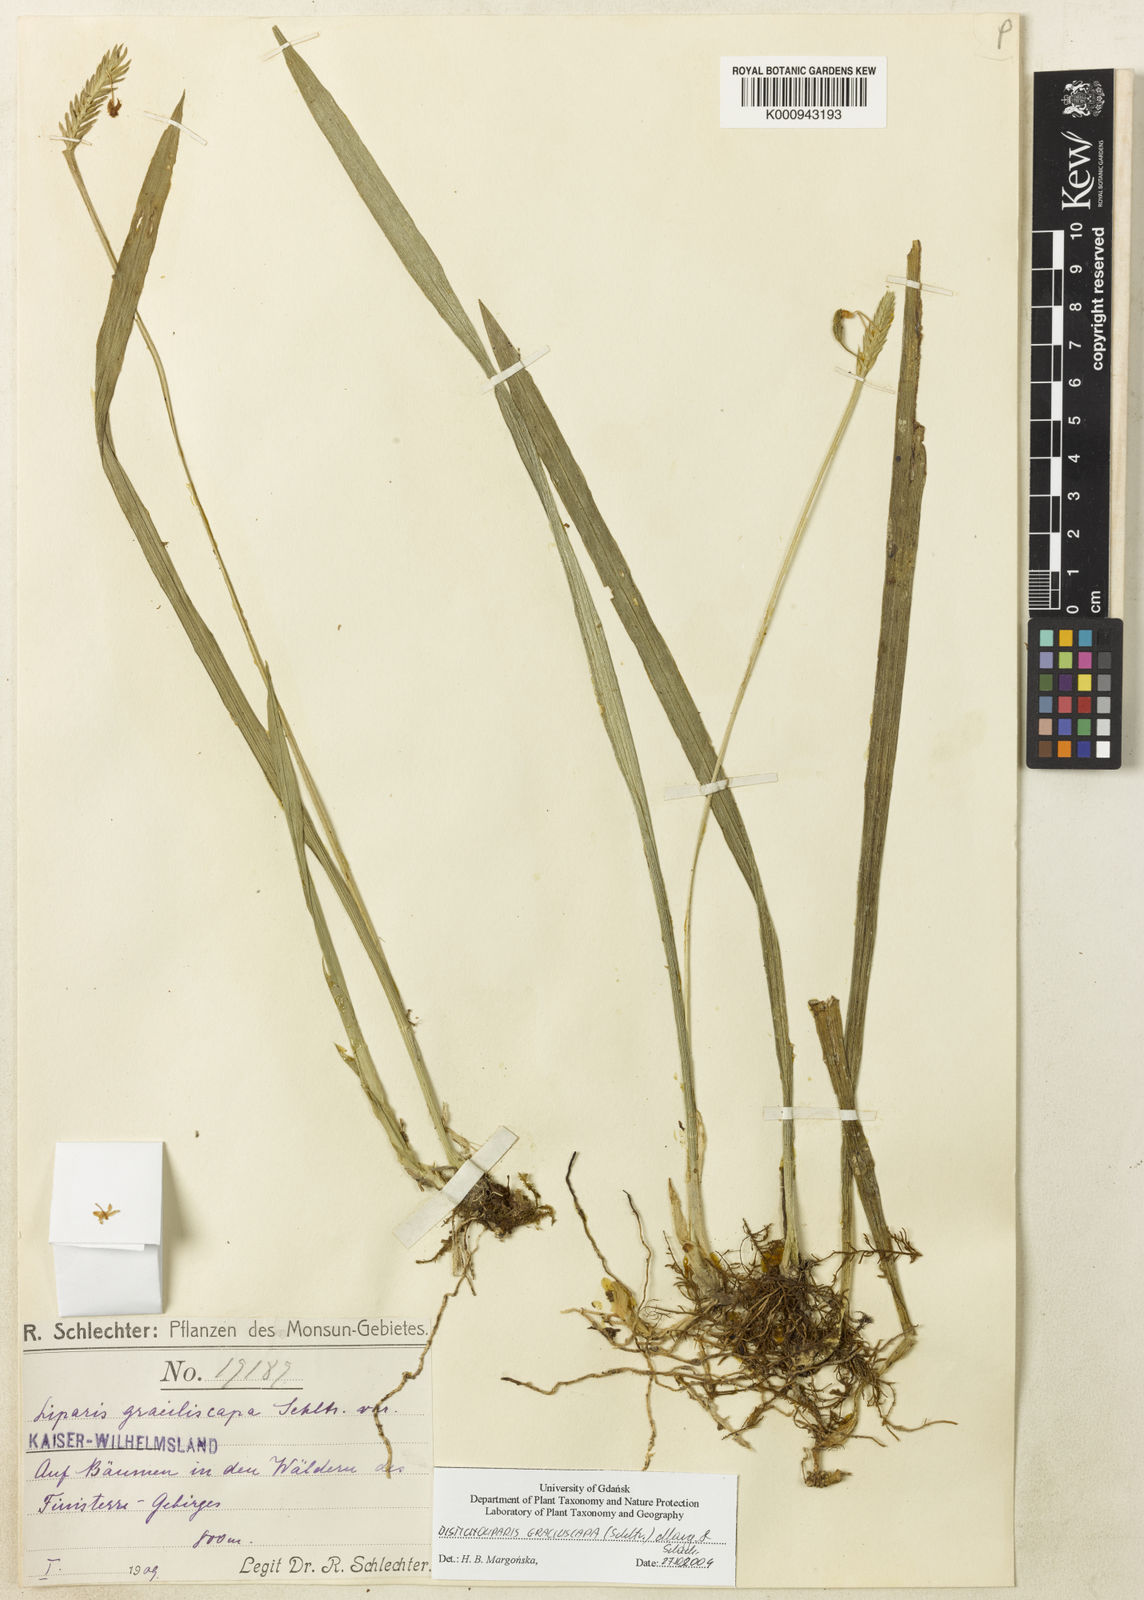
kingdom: Plantae
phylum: Tracheophyta
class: Liliopsida
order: Asparagales
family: Orchidaceae
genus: Liparis
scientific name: Liparis graciliscapa
